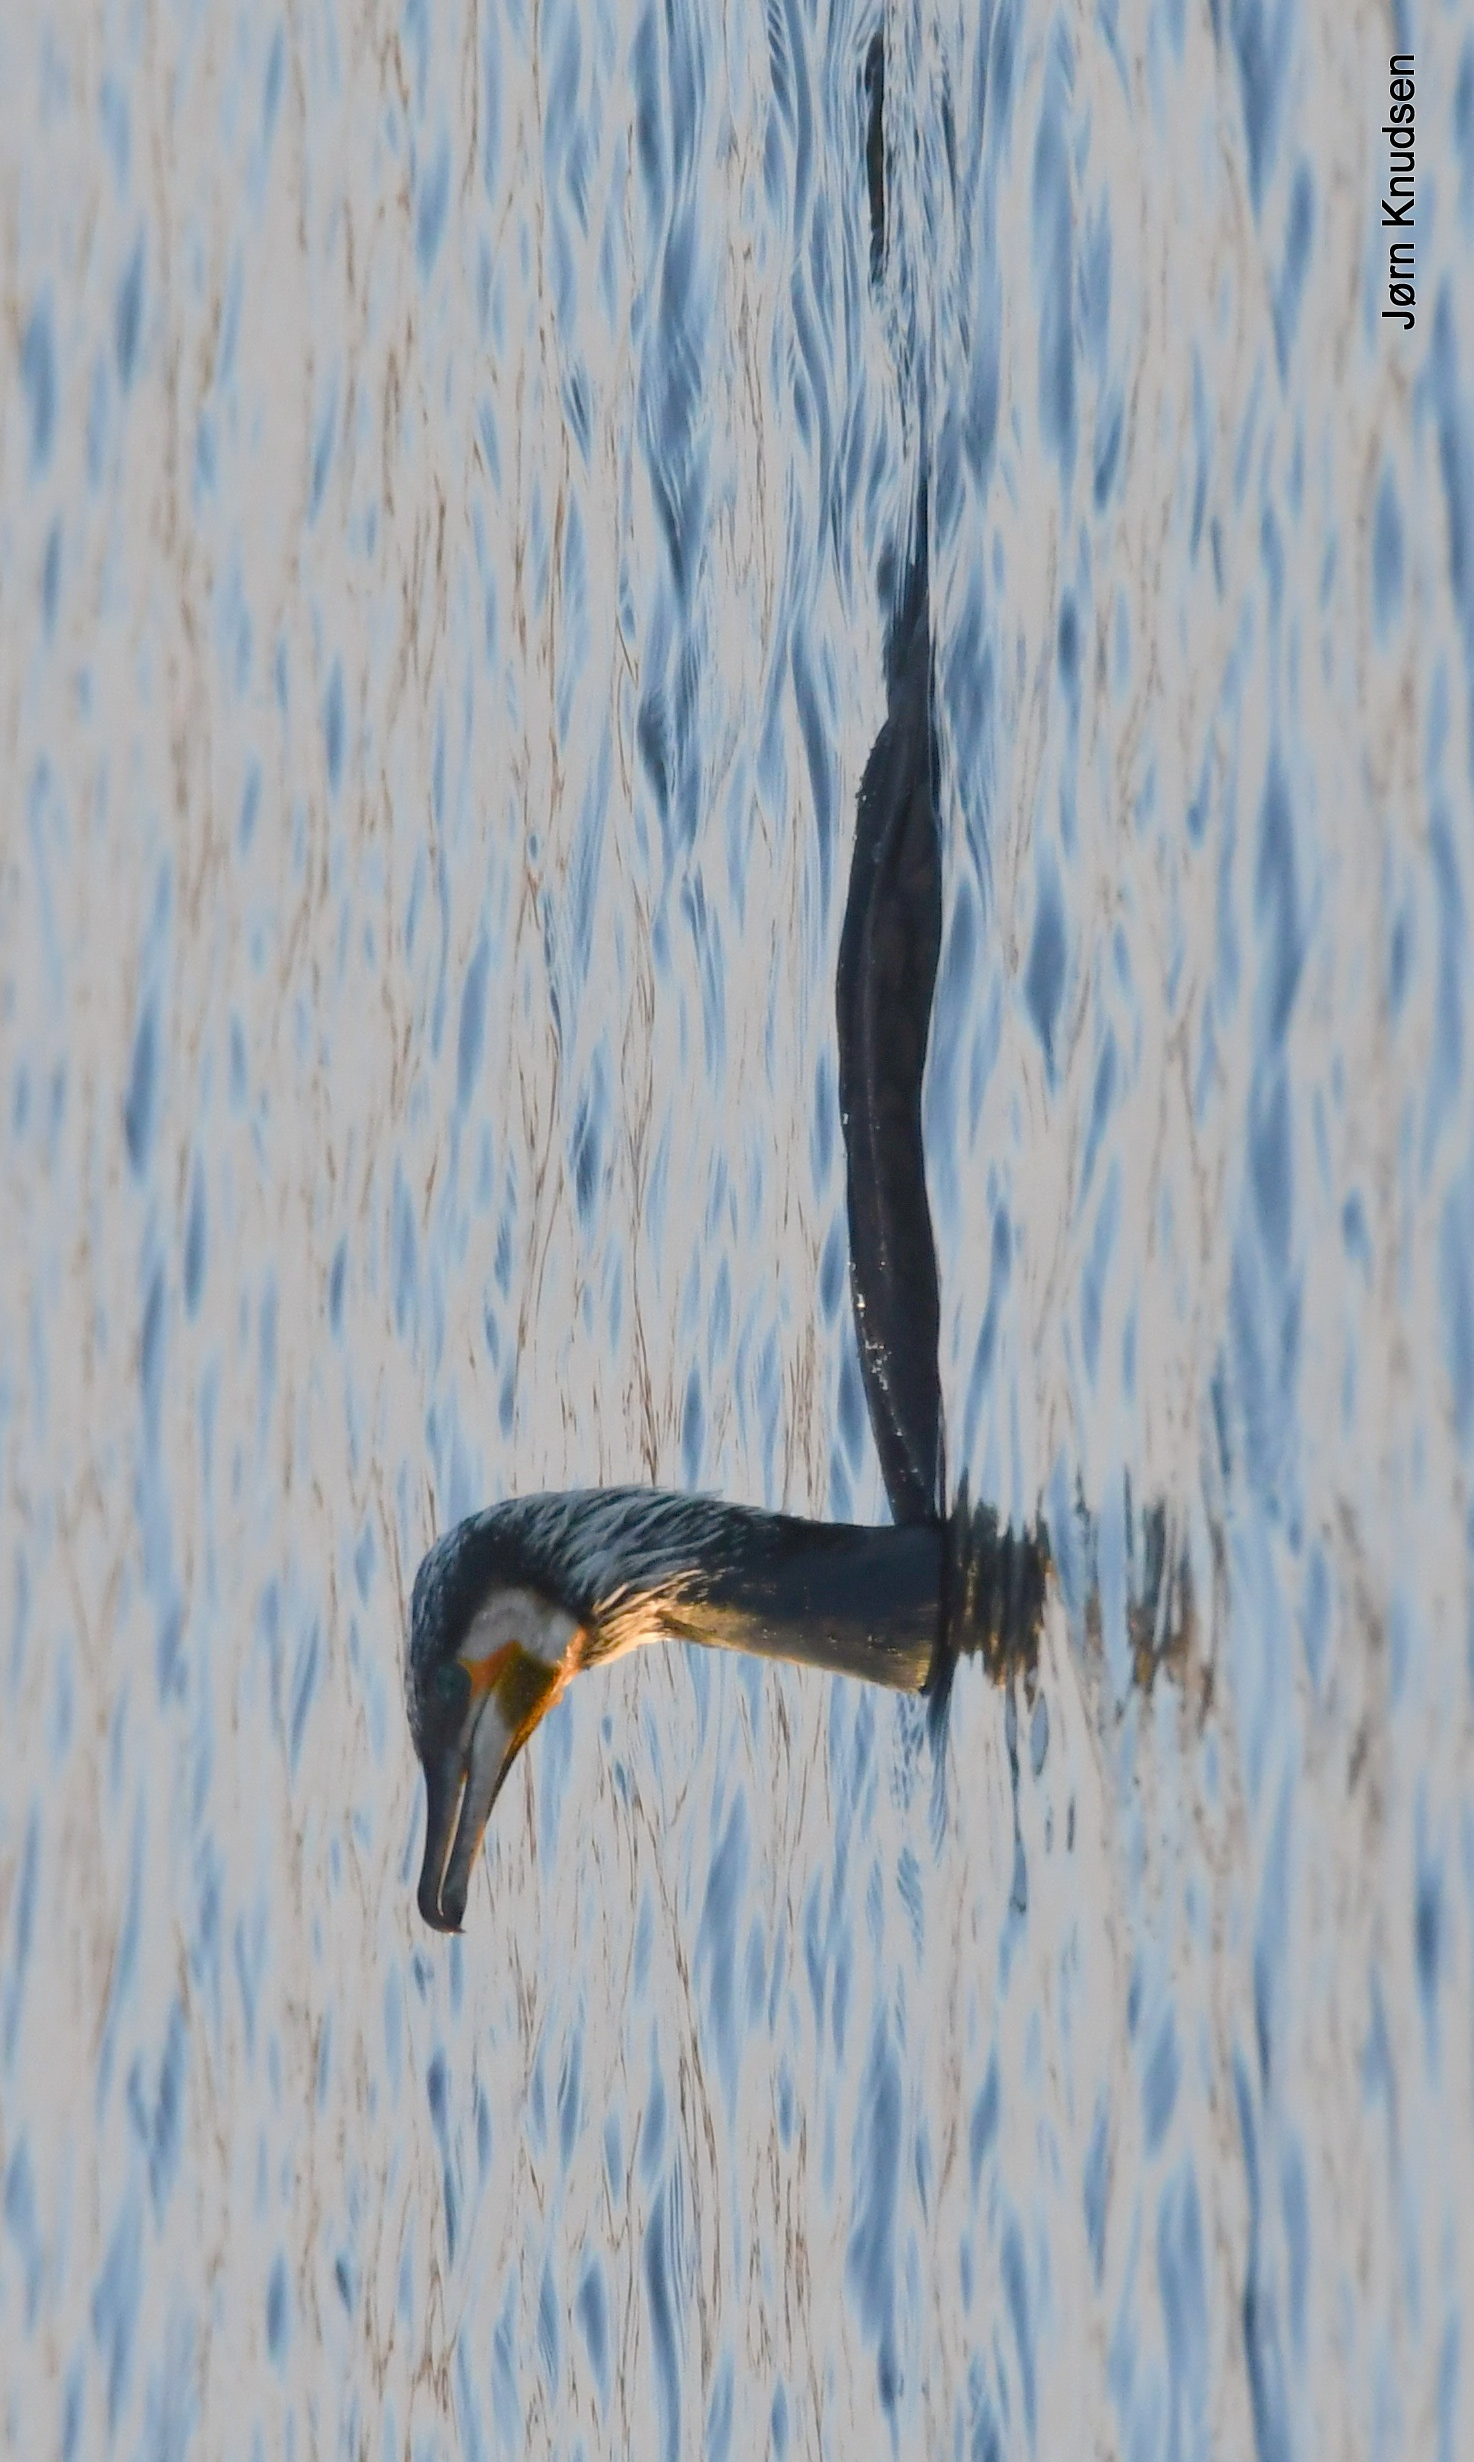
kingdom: Animalia
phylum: Chordata
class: Aves
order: Suliformes
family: Phalacrocoracidae
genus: Phalacrocorax
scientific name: Phalacrocorax carbo
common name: Skarv
